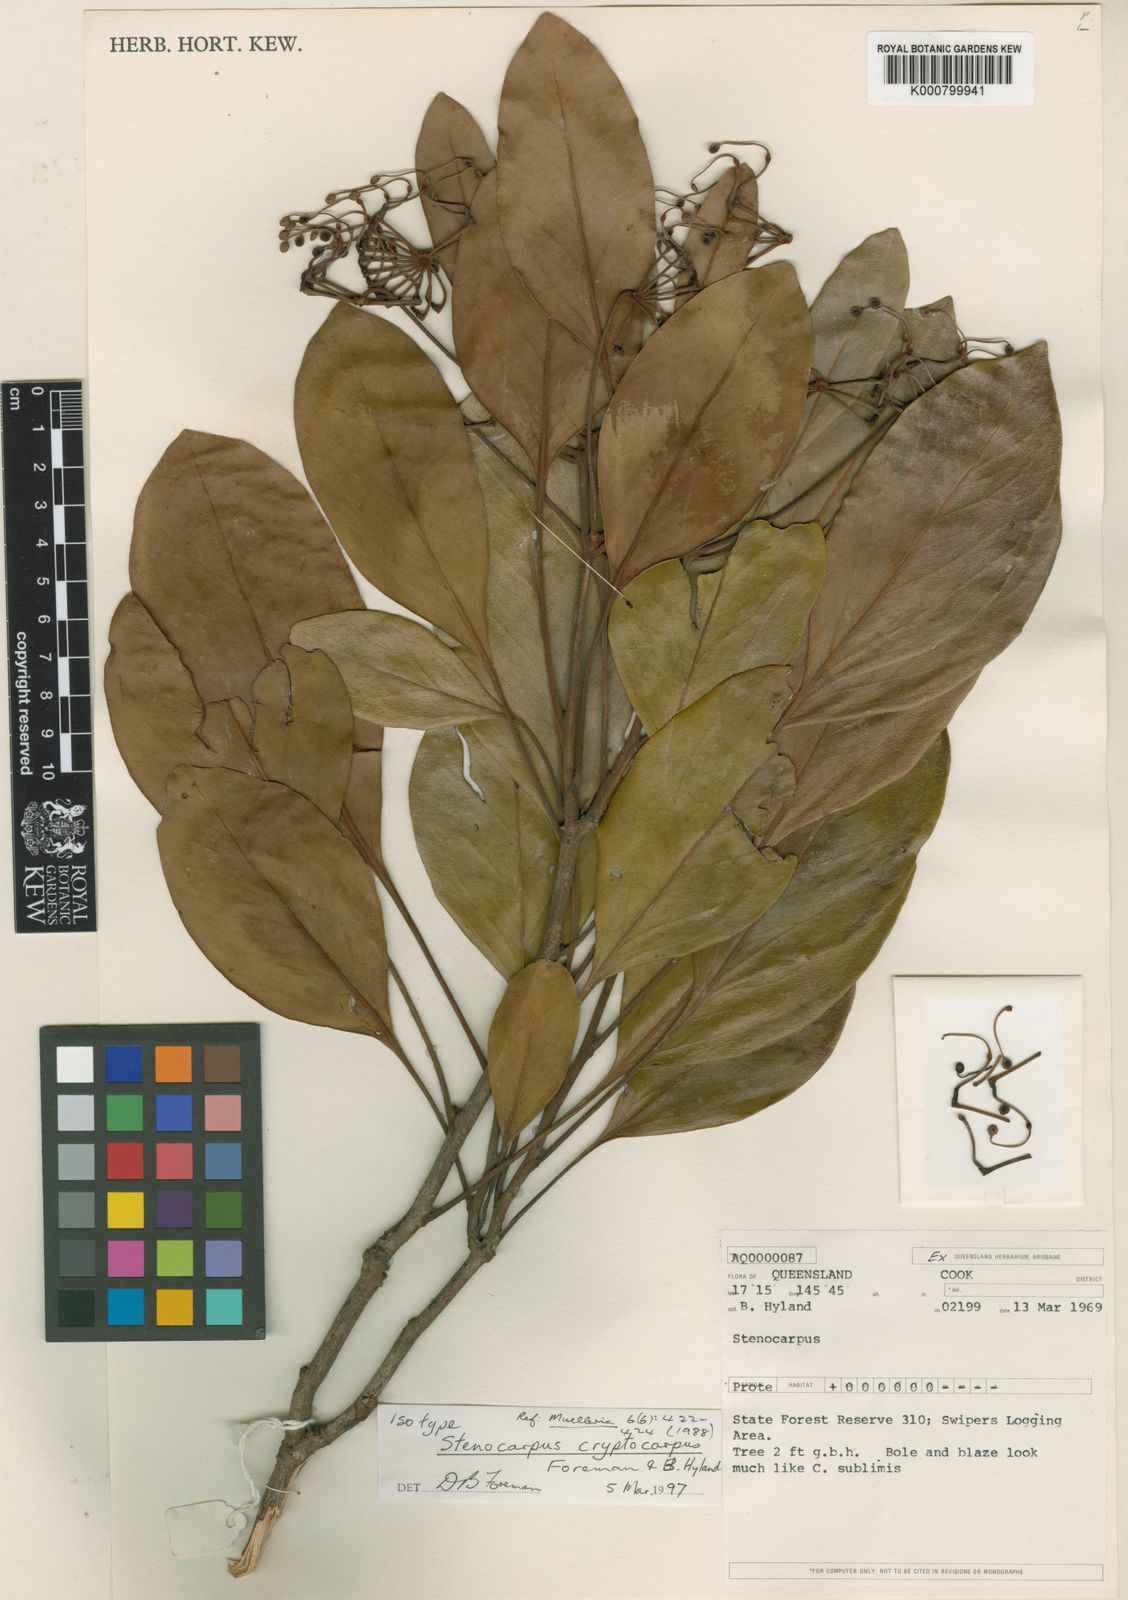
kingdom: Plantae
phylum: Tracheophyta
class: Magnoliopsida
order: Proteales
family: Proteaceae
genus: Stenocarpus
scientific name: Stenocarpus cryptocarpus
